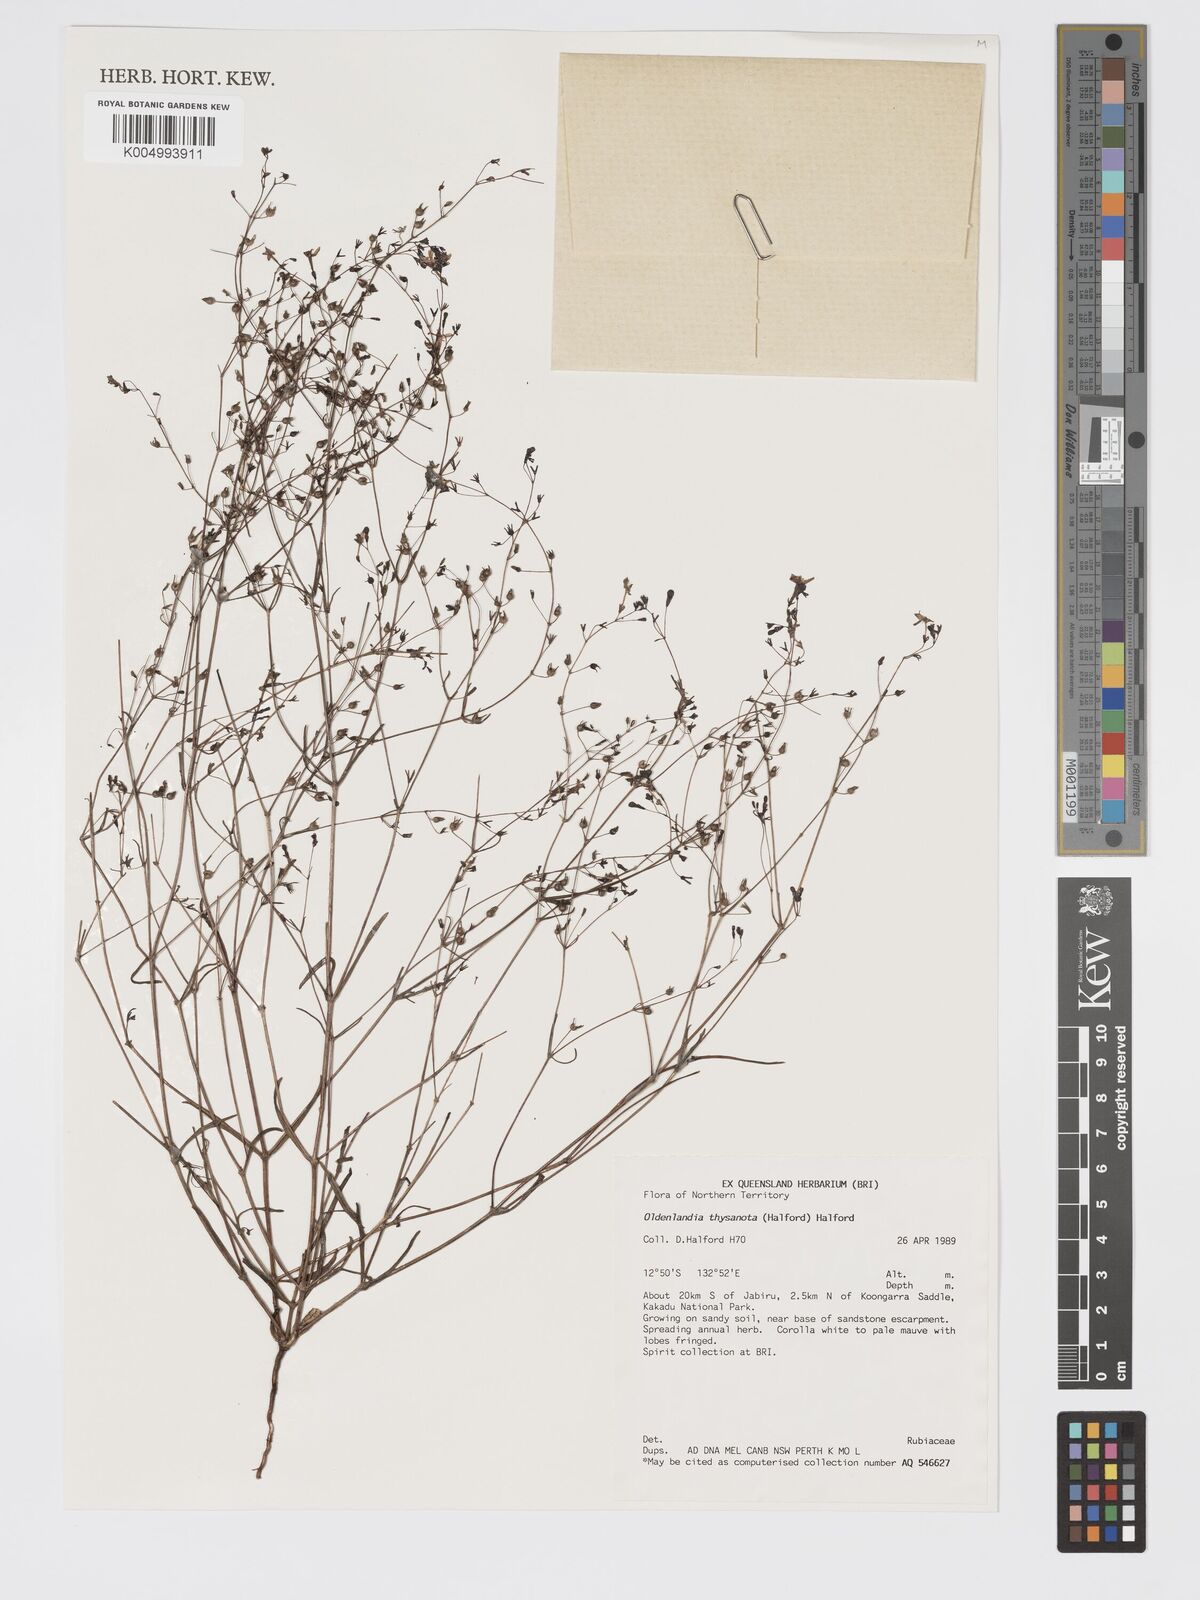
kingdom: Plantae
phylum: Tracheophyta
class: Magnoliopsida
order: Gentianales
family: Rubiaceae
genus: Scleromitrion
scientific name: Scleromitrion thysanotum
